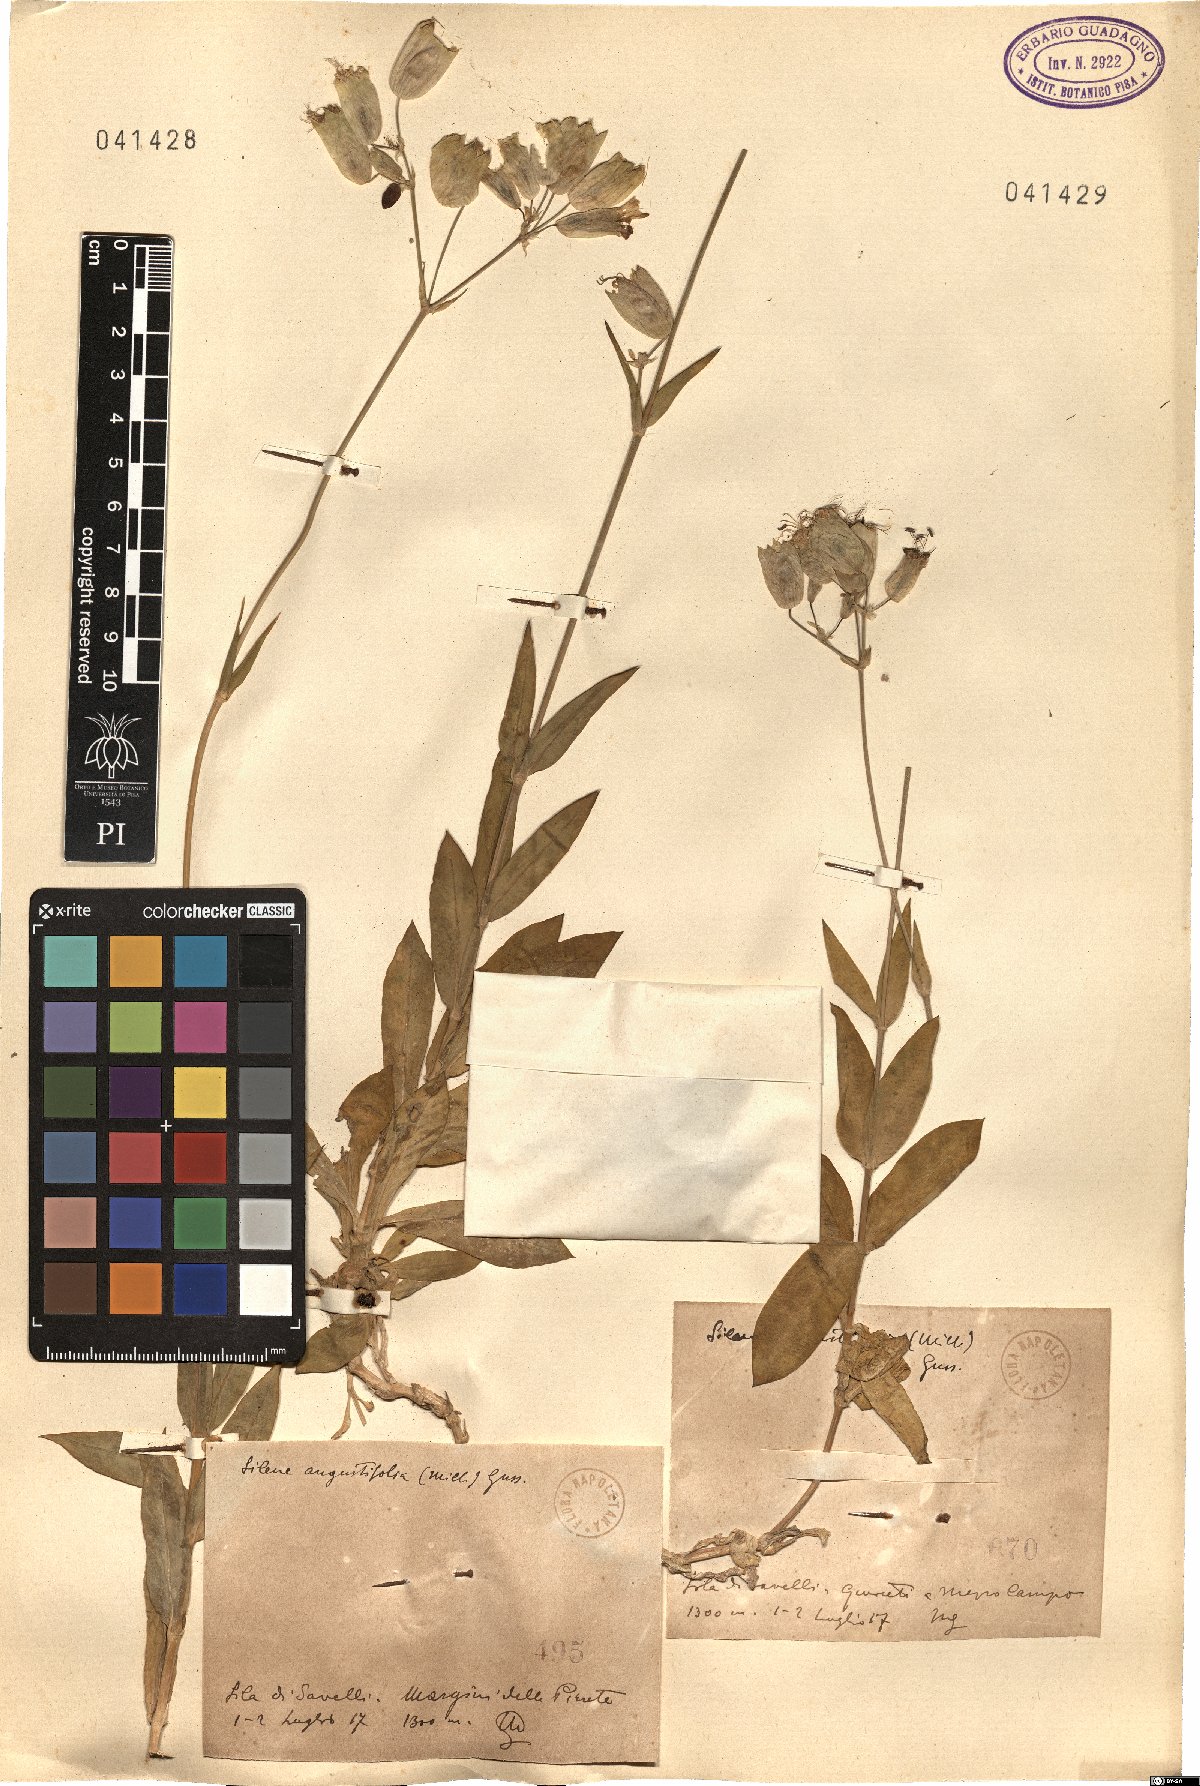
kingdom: Plantae
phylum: Tracheophyta
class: Magnoliopsida
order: Caryophyllales
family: Caryophyllaceae
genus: Silene
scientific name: Silene vulgaris
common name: Bladder campion
